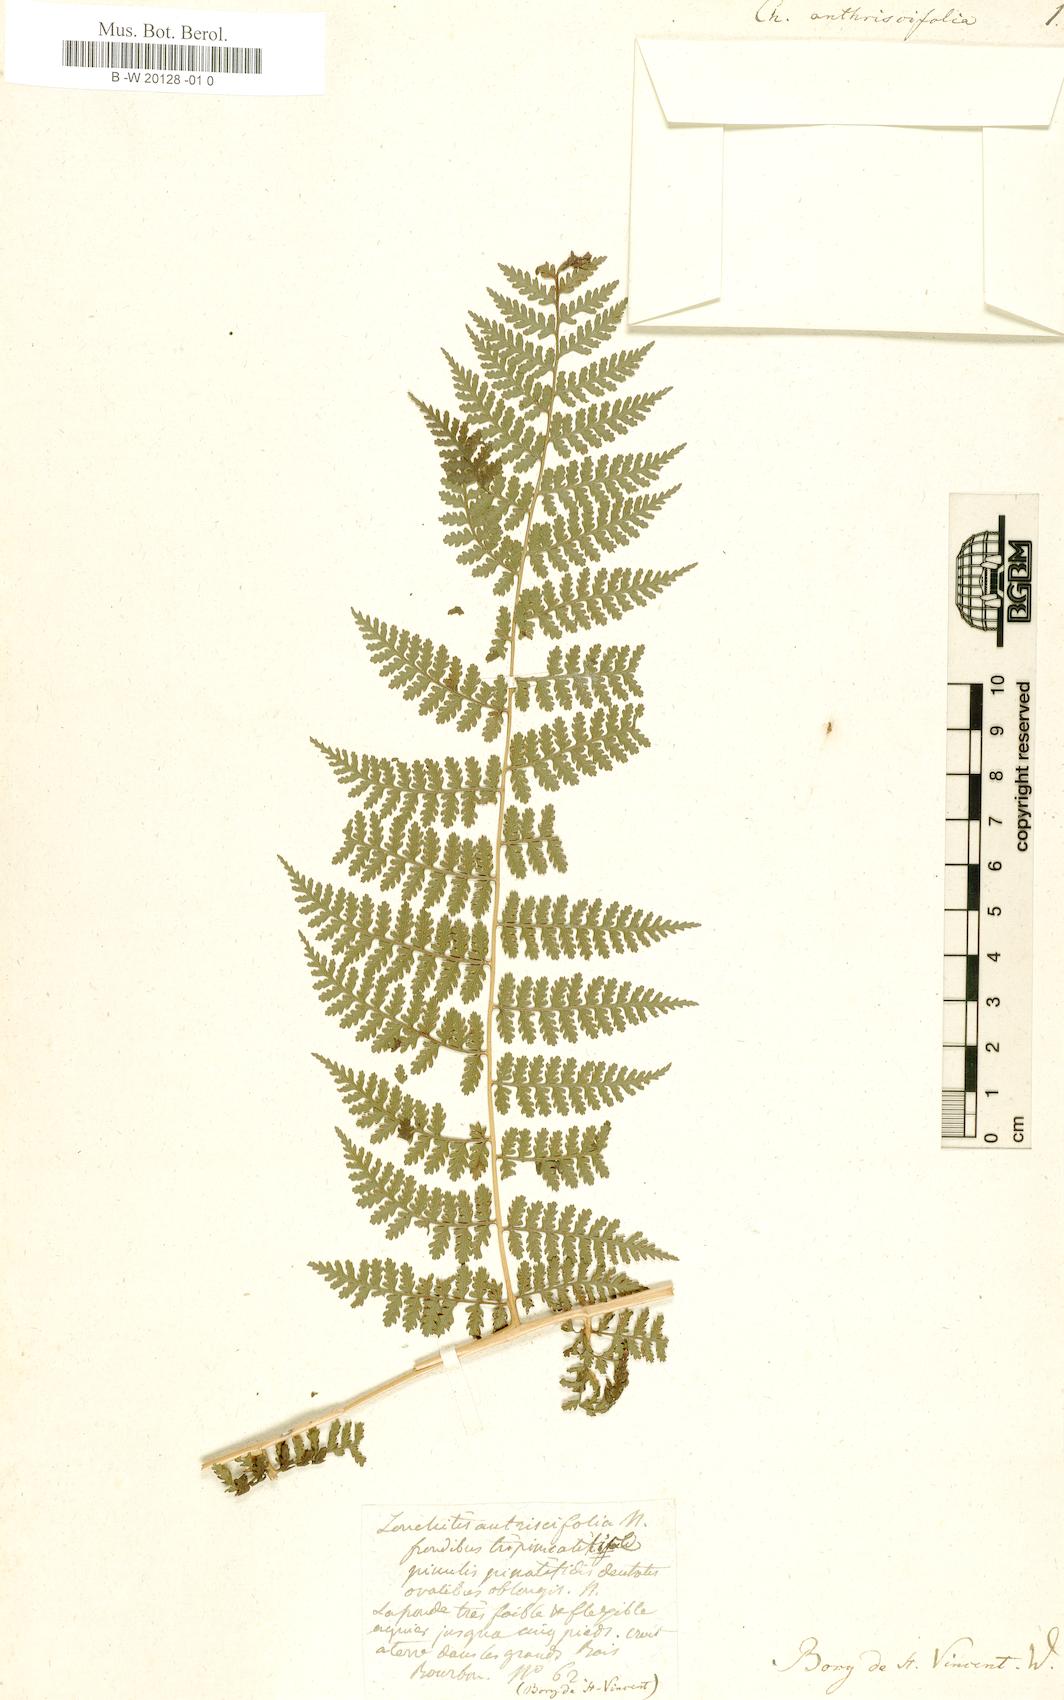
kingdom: Plantae
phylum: Tracheophyta
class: Polypodiopsida
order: Polypodiales
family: Dennstaedtiaceae
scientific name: Dennstaedtiaceae
